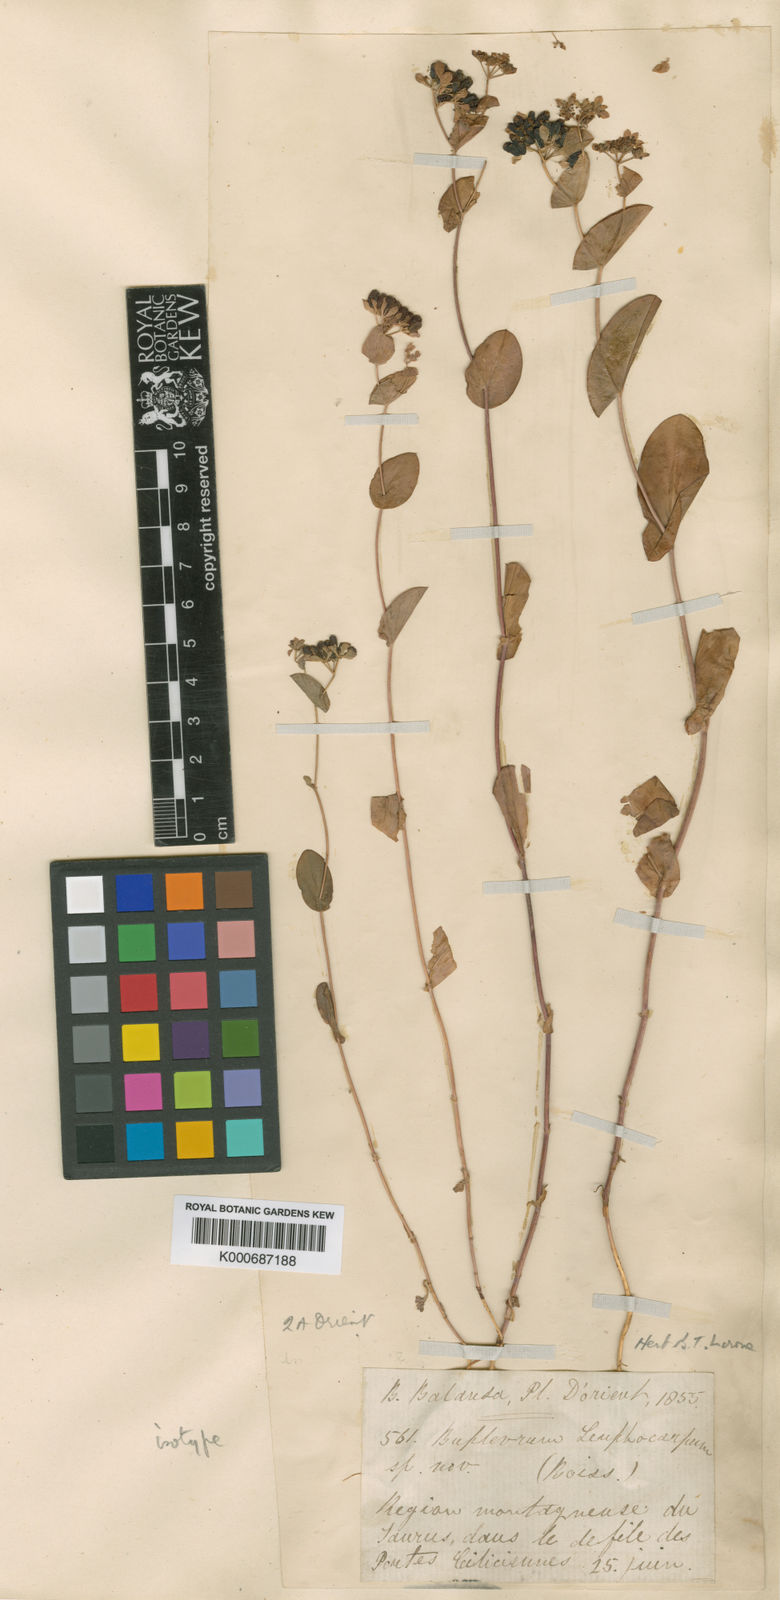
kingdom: Plantae
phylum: Tracheophyta
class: Magnoliopsida
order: Apiales
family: Apiaceae
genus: Bupleurum
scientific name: Bupleurum lophocarpum
